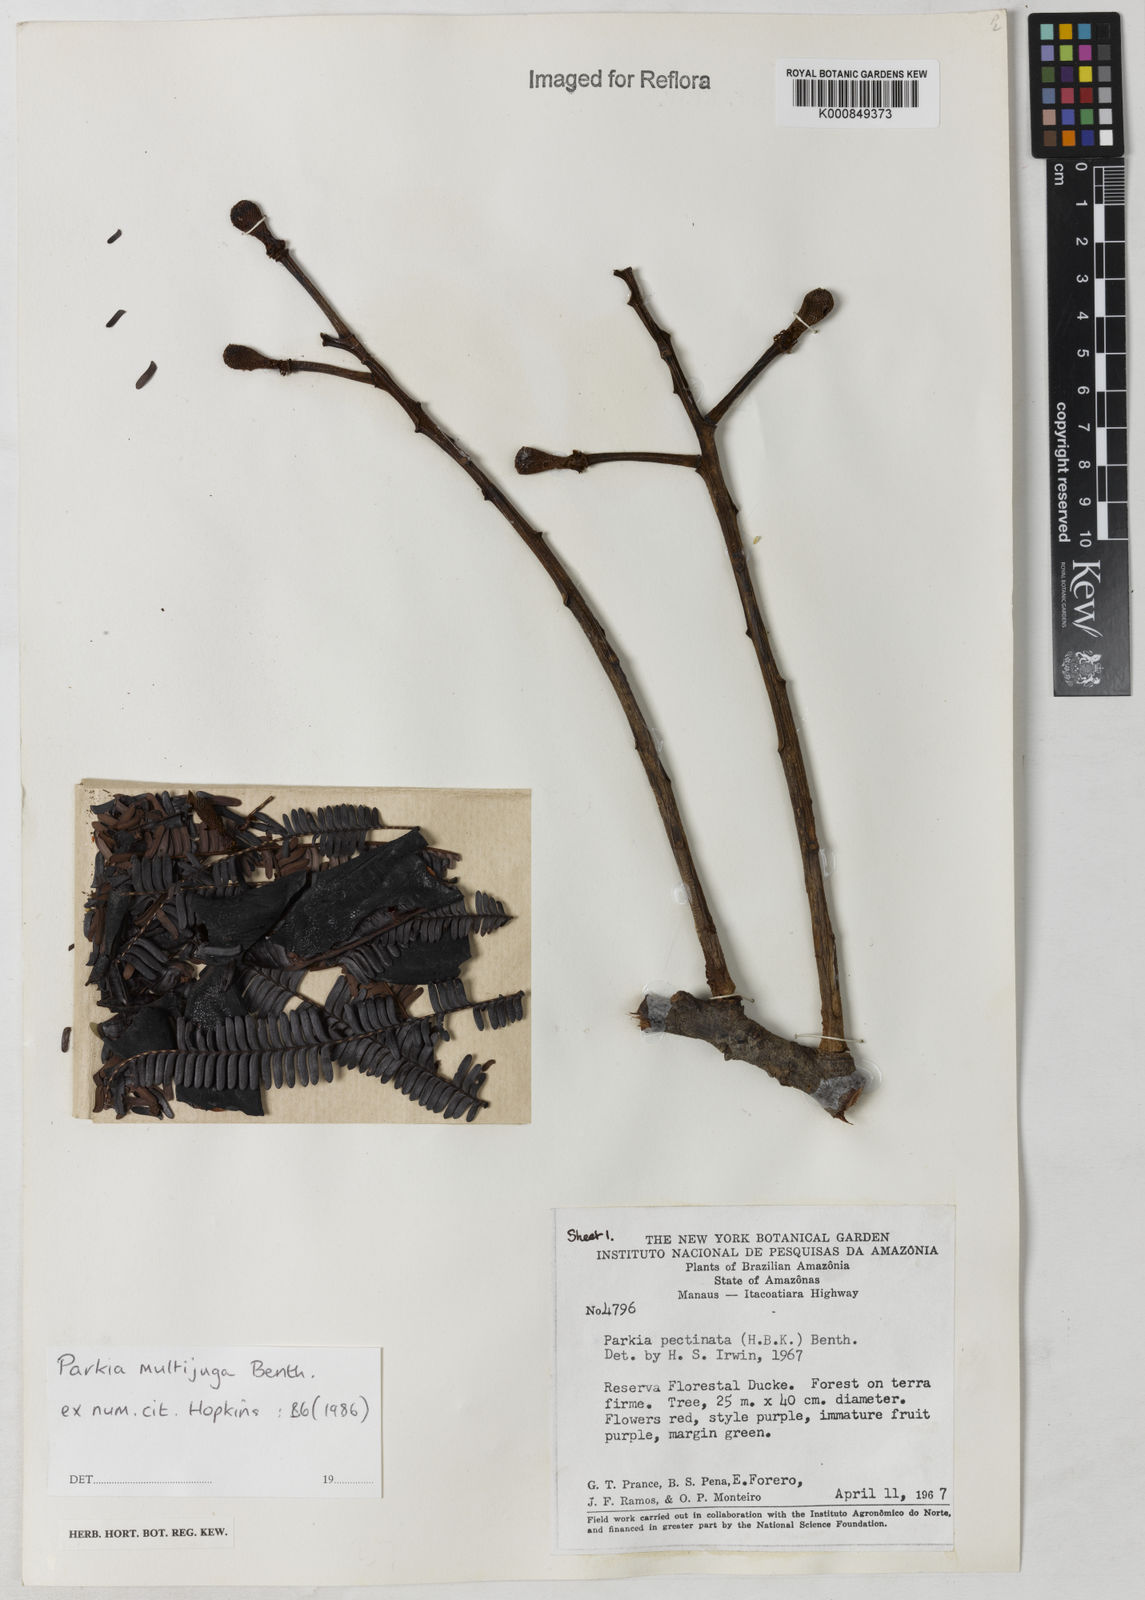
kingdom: Plantae
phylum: Tracheophyta
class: Magnoliopsida
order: Fabales
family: Fabaceae
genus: Parkia
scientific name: Parkia multijuga
